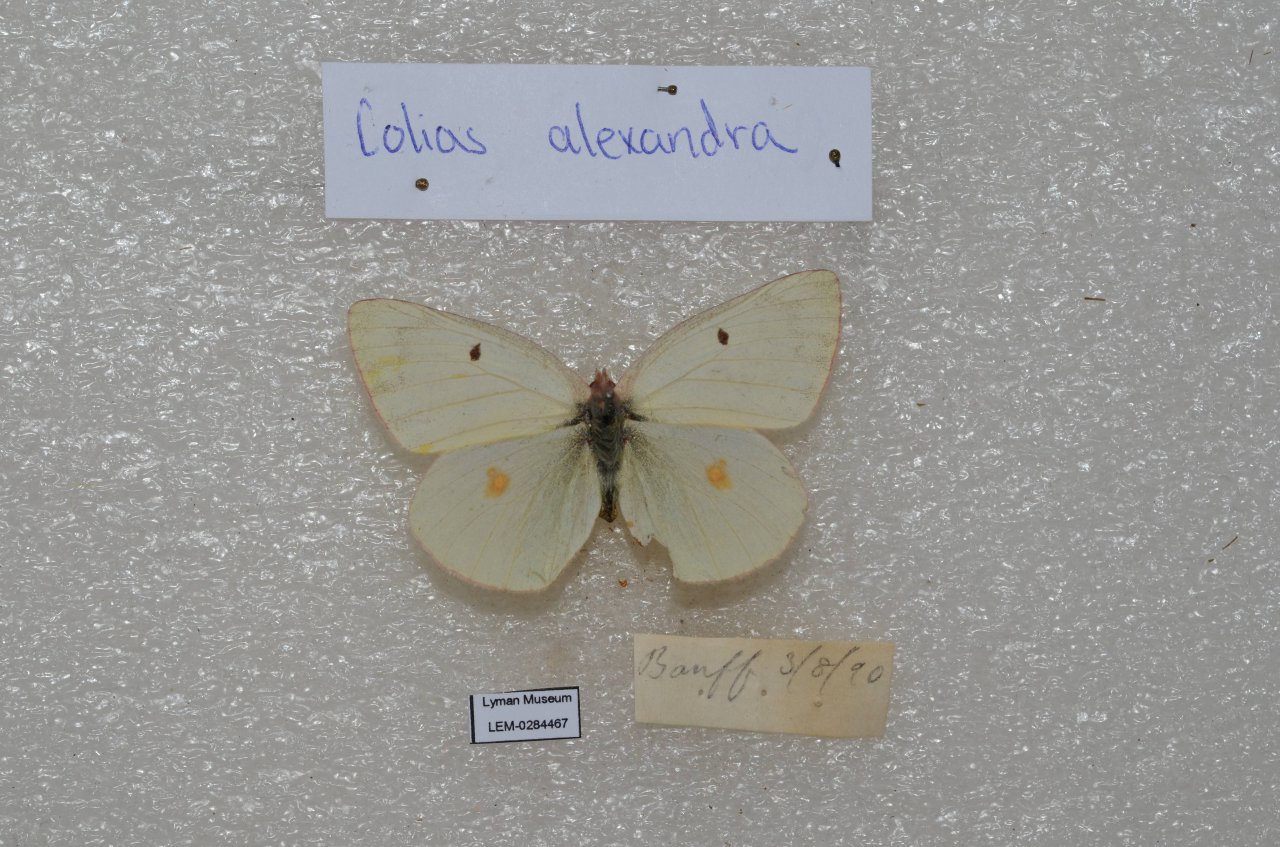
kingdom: Animalia
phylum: Arthropoda
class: Insecta
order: Lepidoptera
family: Pieridae
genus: Colias
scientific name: Colias alexandra
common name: Queen Alexandra's Sulphur
